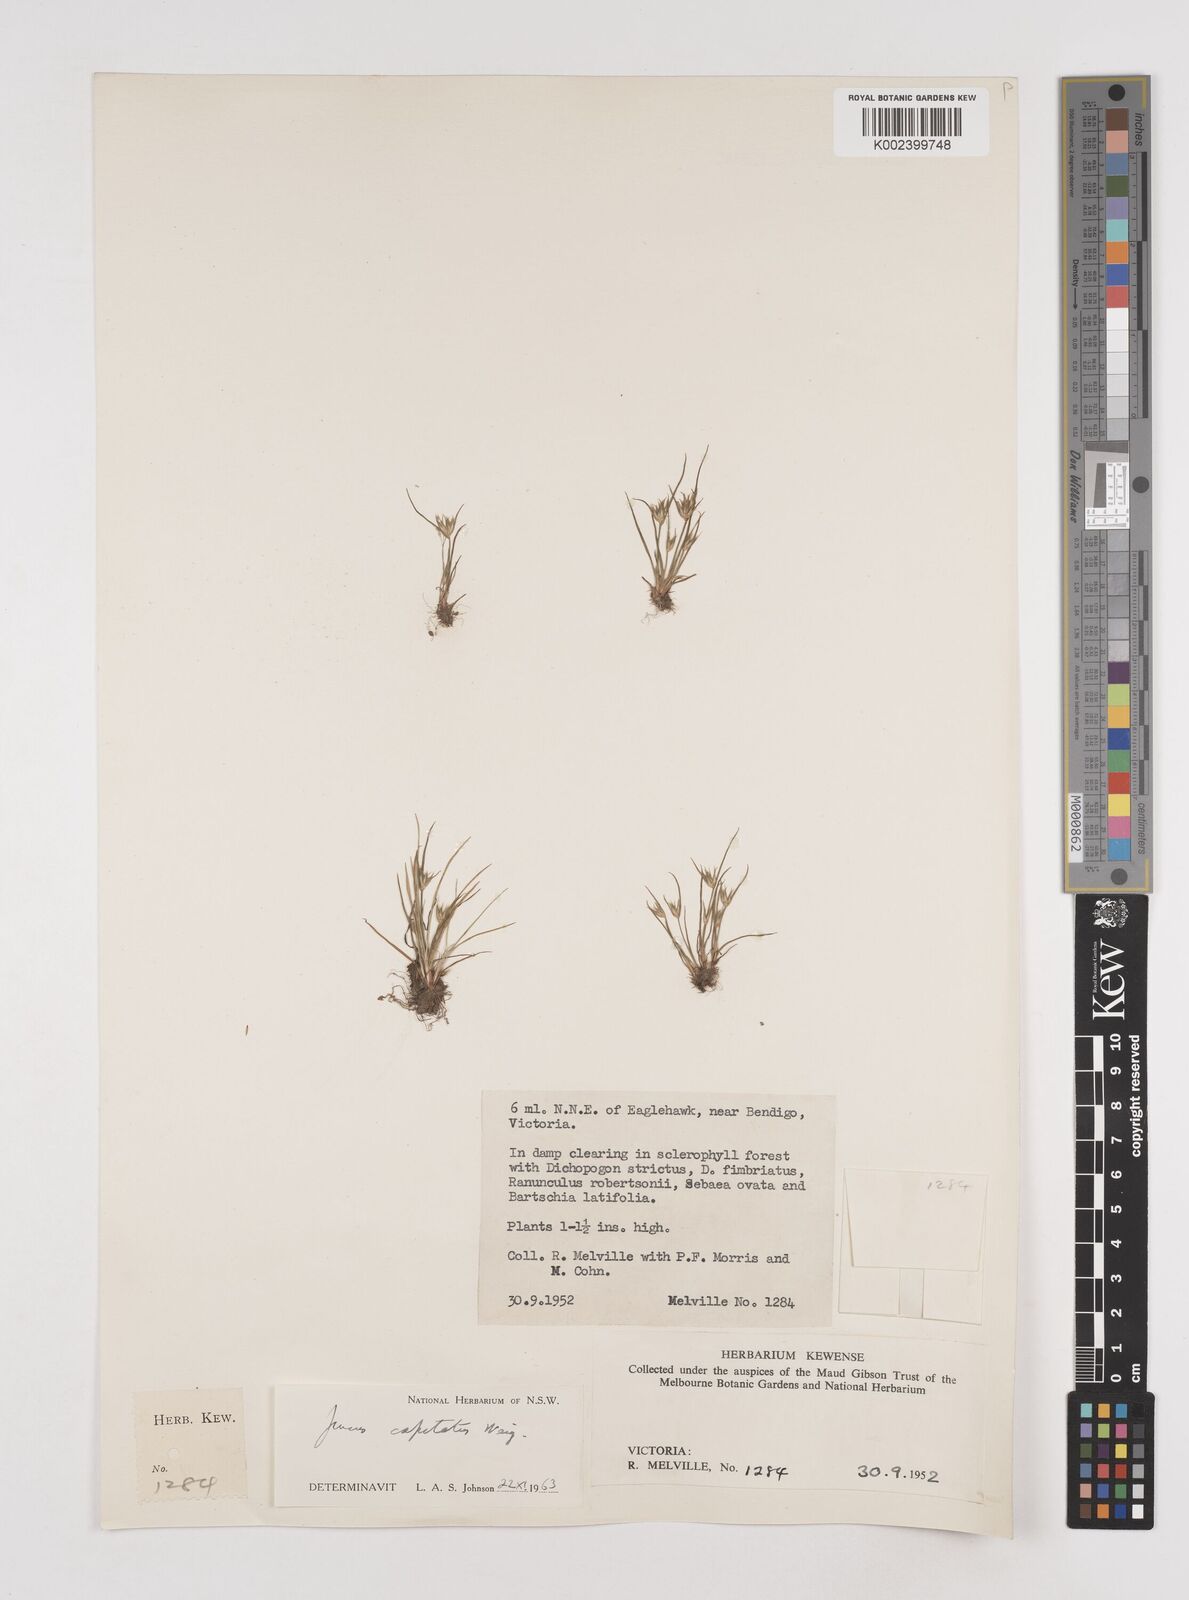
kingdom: Plantae
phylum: Tracheophyta
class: Liliopsida
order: Poales
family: Juncaceae
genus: Juncus
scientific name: Juncus capitatus
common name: Dwarf rush
